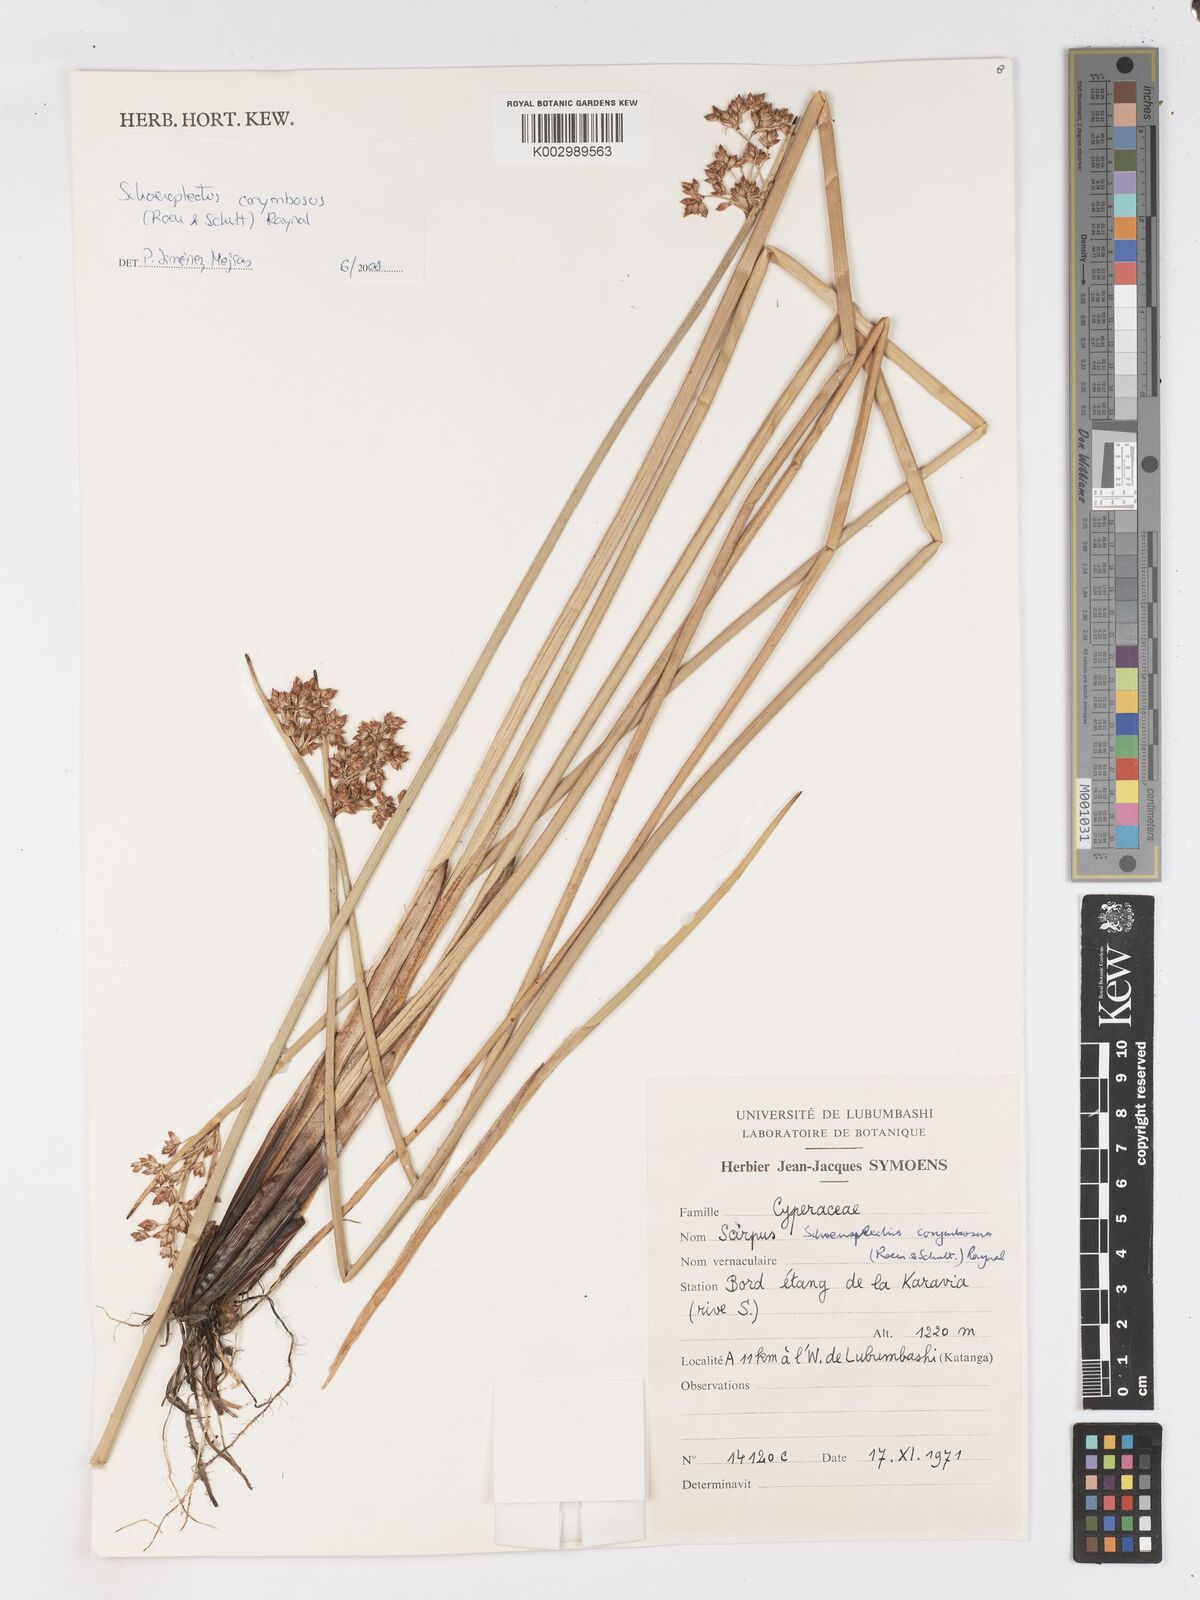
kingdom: Plantae
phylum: Tracheophyta
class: Liliopsida
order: Poales
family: Cyperaceae
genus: Schoenoplectiella
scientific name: Schoenoplectiella corymbosa
